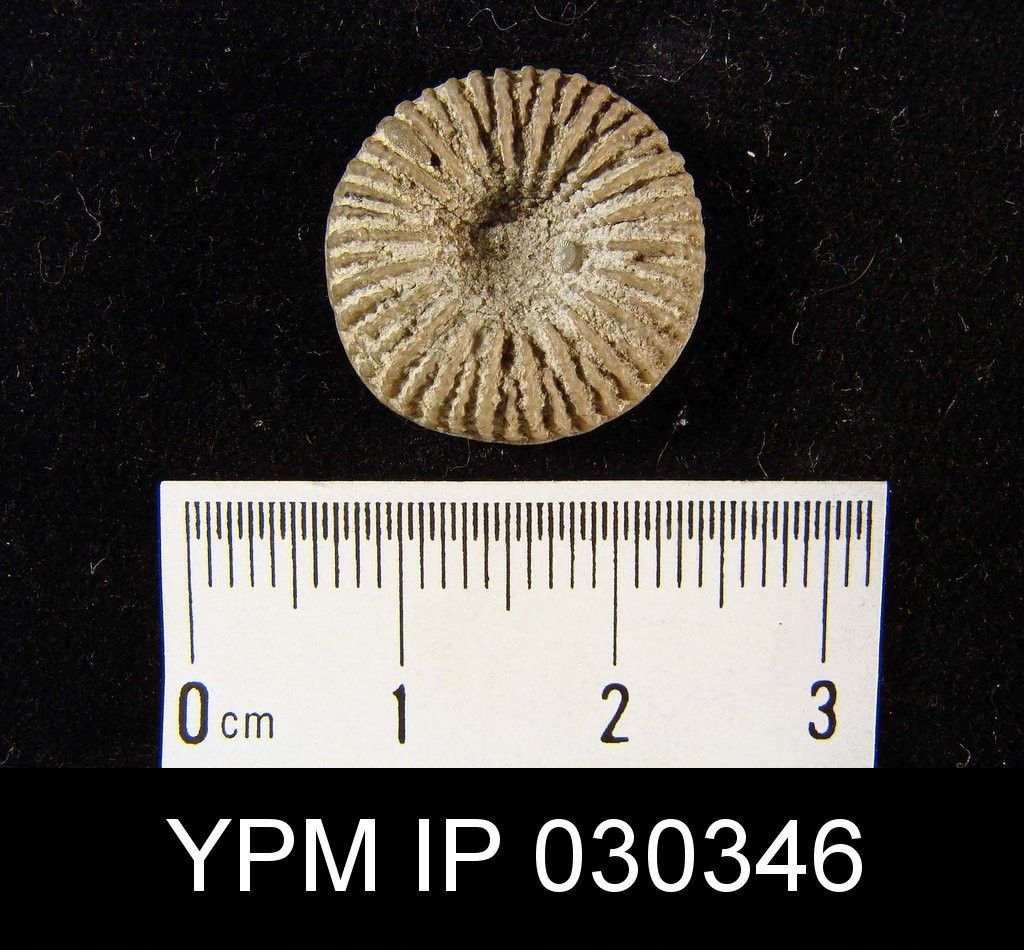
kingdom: Animalia
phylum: Cnidaria
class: Anthozoa
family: Palaeocyclidae
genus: Palaeocyclus
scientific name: Palaeocyclus
